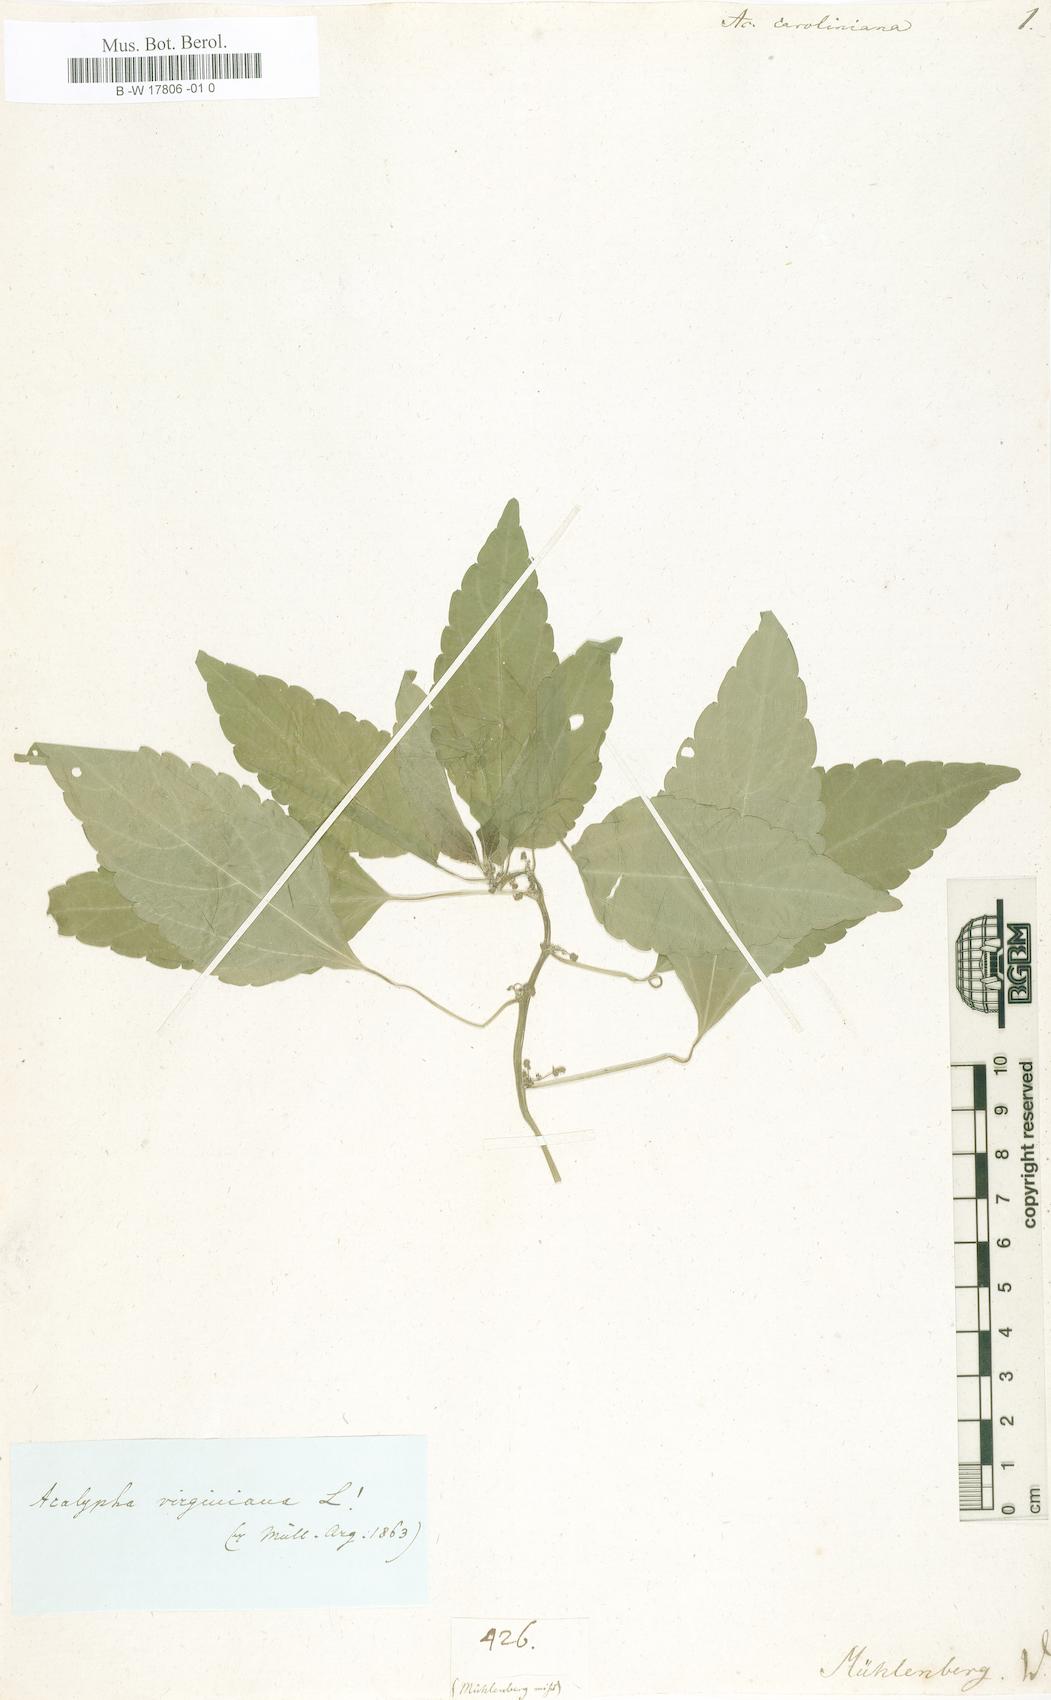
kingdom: Plantae
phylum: Tracheophyta
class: Magnoliopsida
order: Malpighiales
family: Euphorbiaceae
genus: Acalypha
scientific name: Acalypha virginica
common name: Virginia copperleaf
